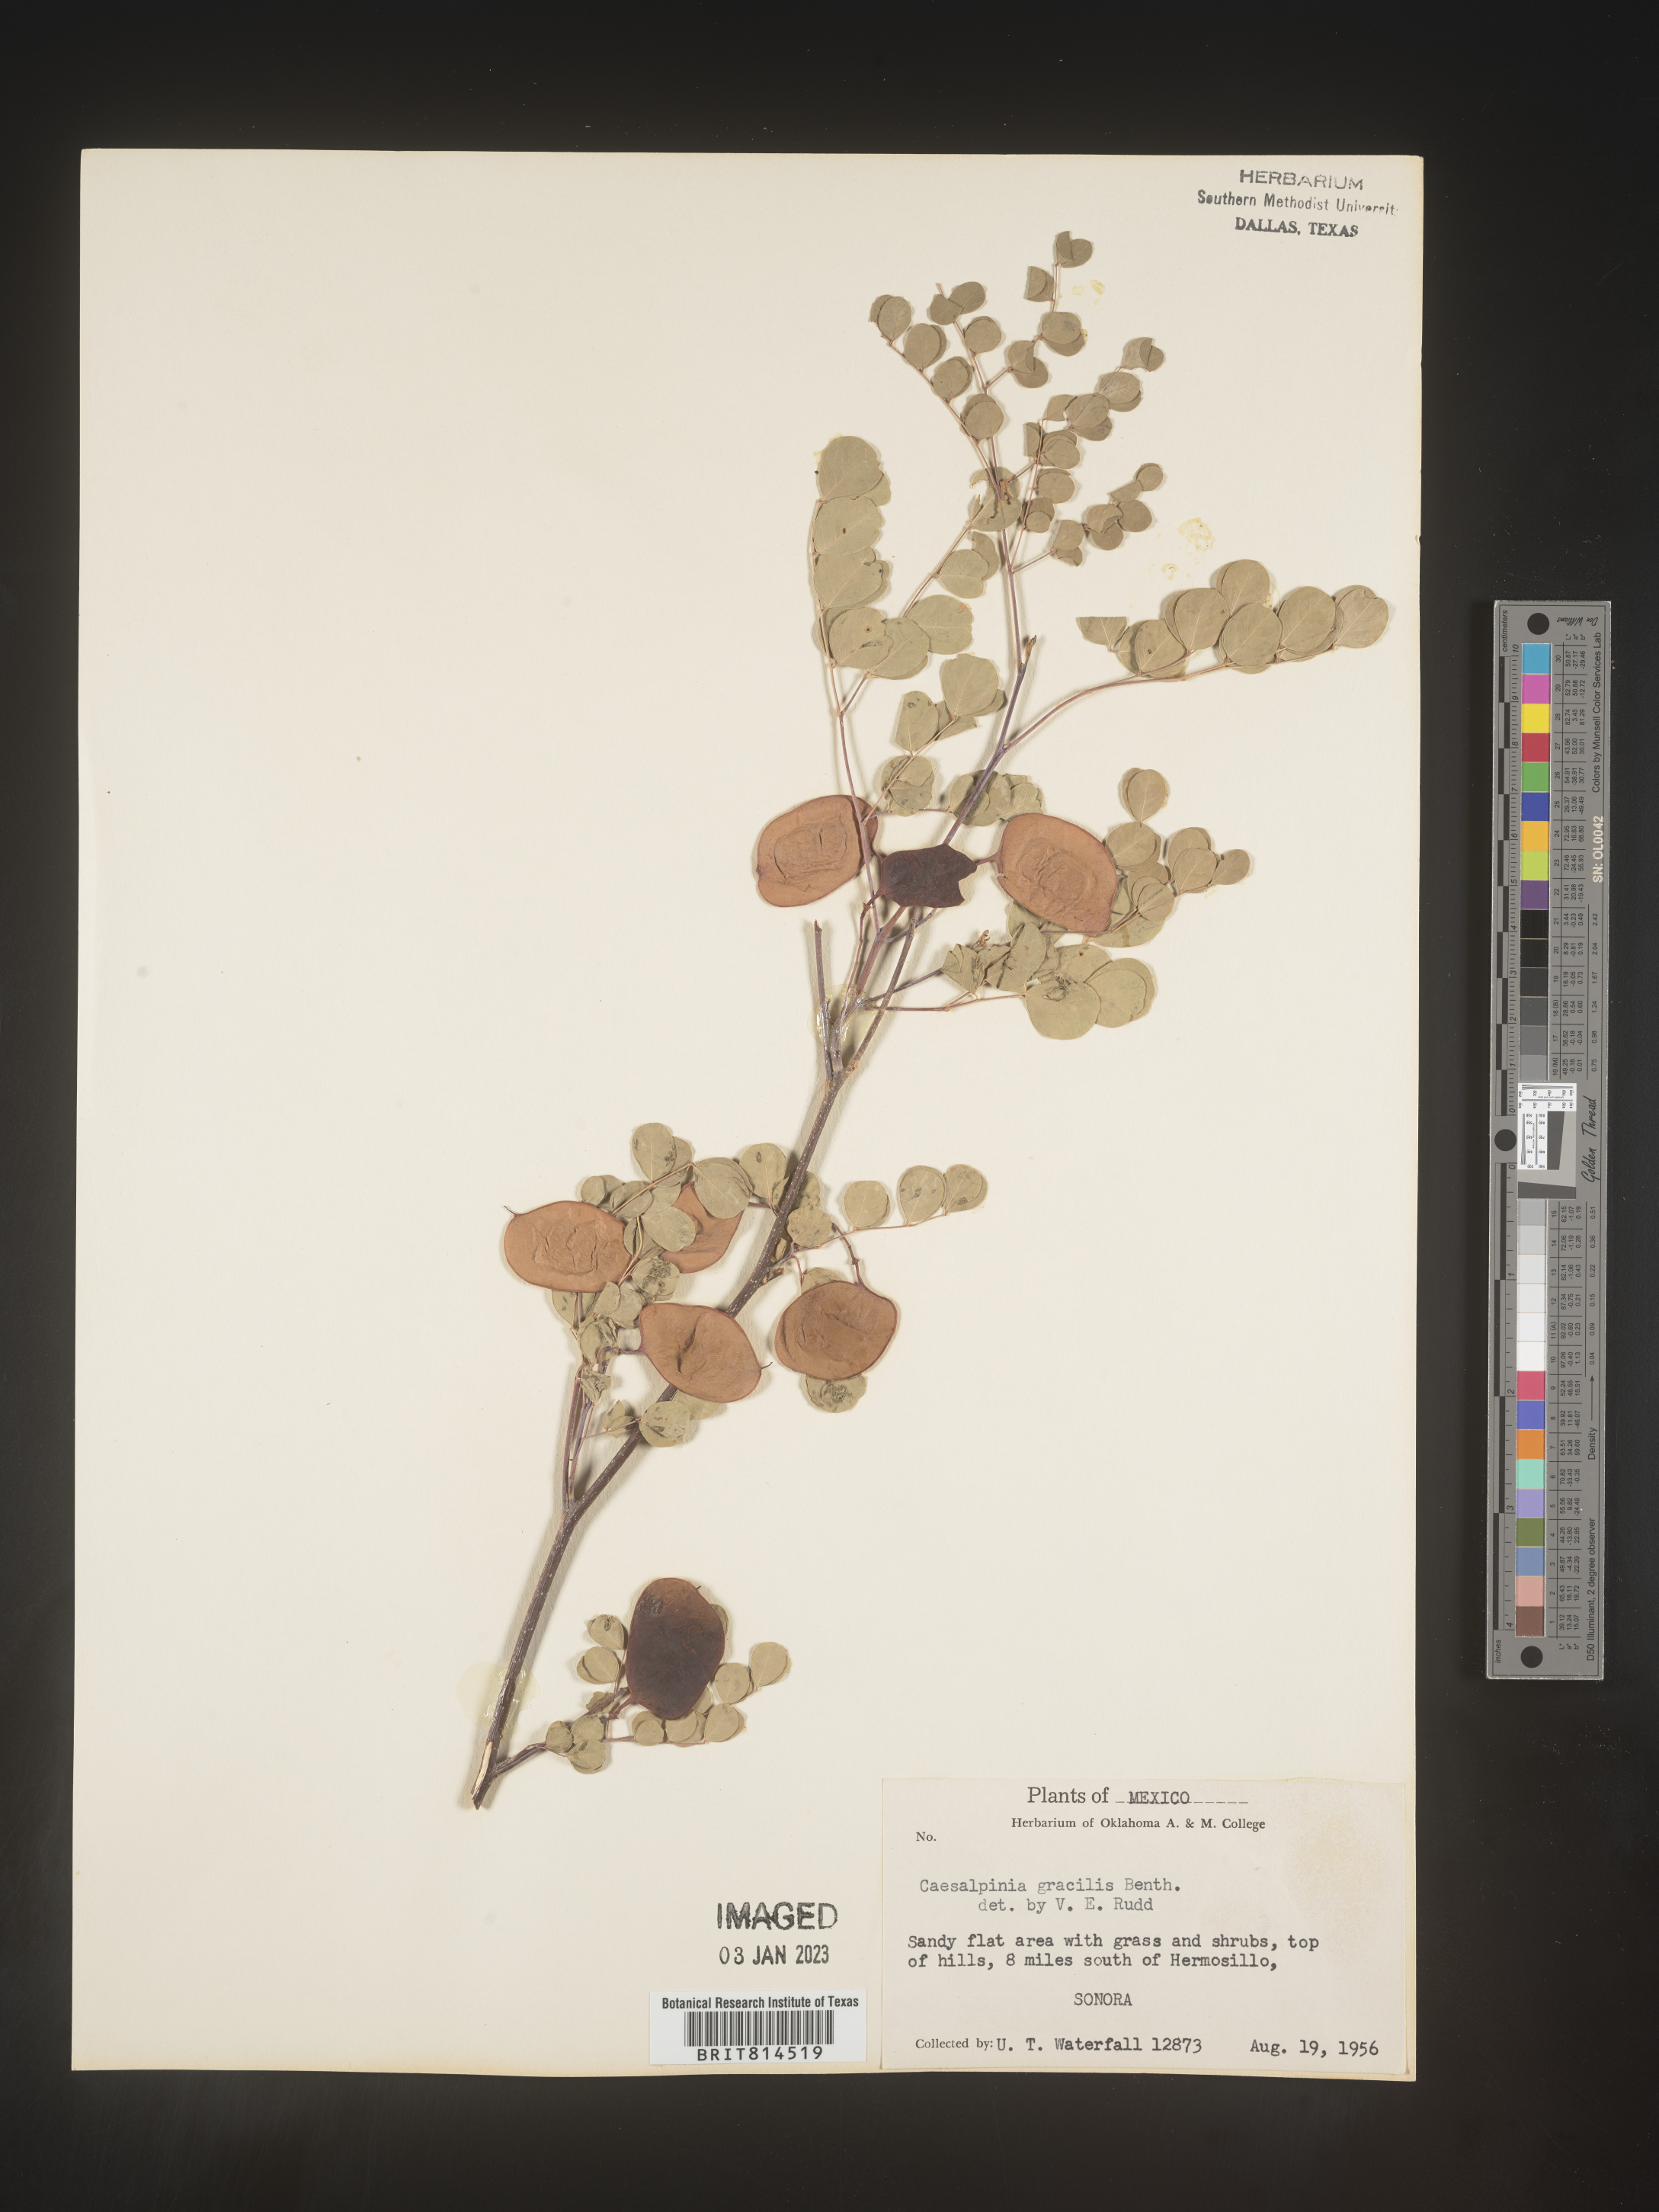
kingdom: Plantae
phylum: Tracheophyta
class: Magnoliopsida
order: Fabales
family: Fabaceae
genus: Caesalpinia
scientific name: Caesalpinia
